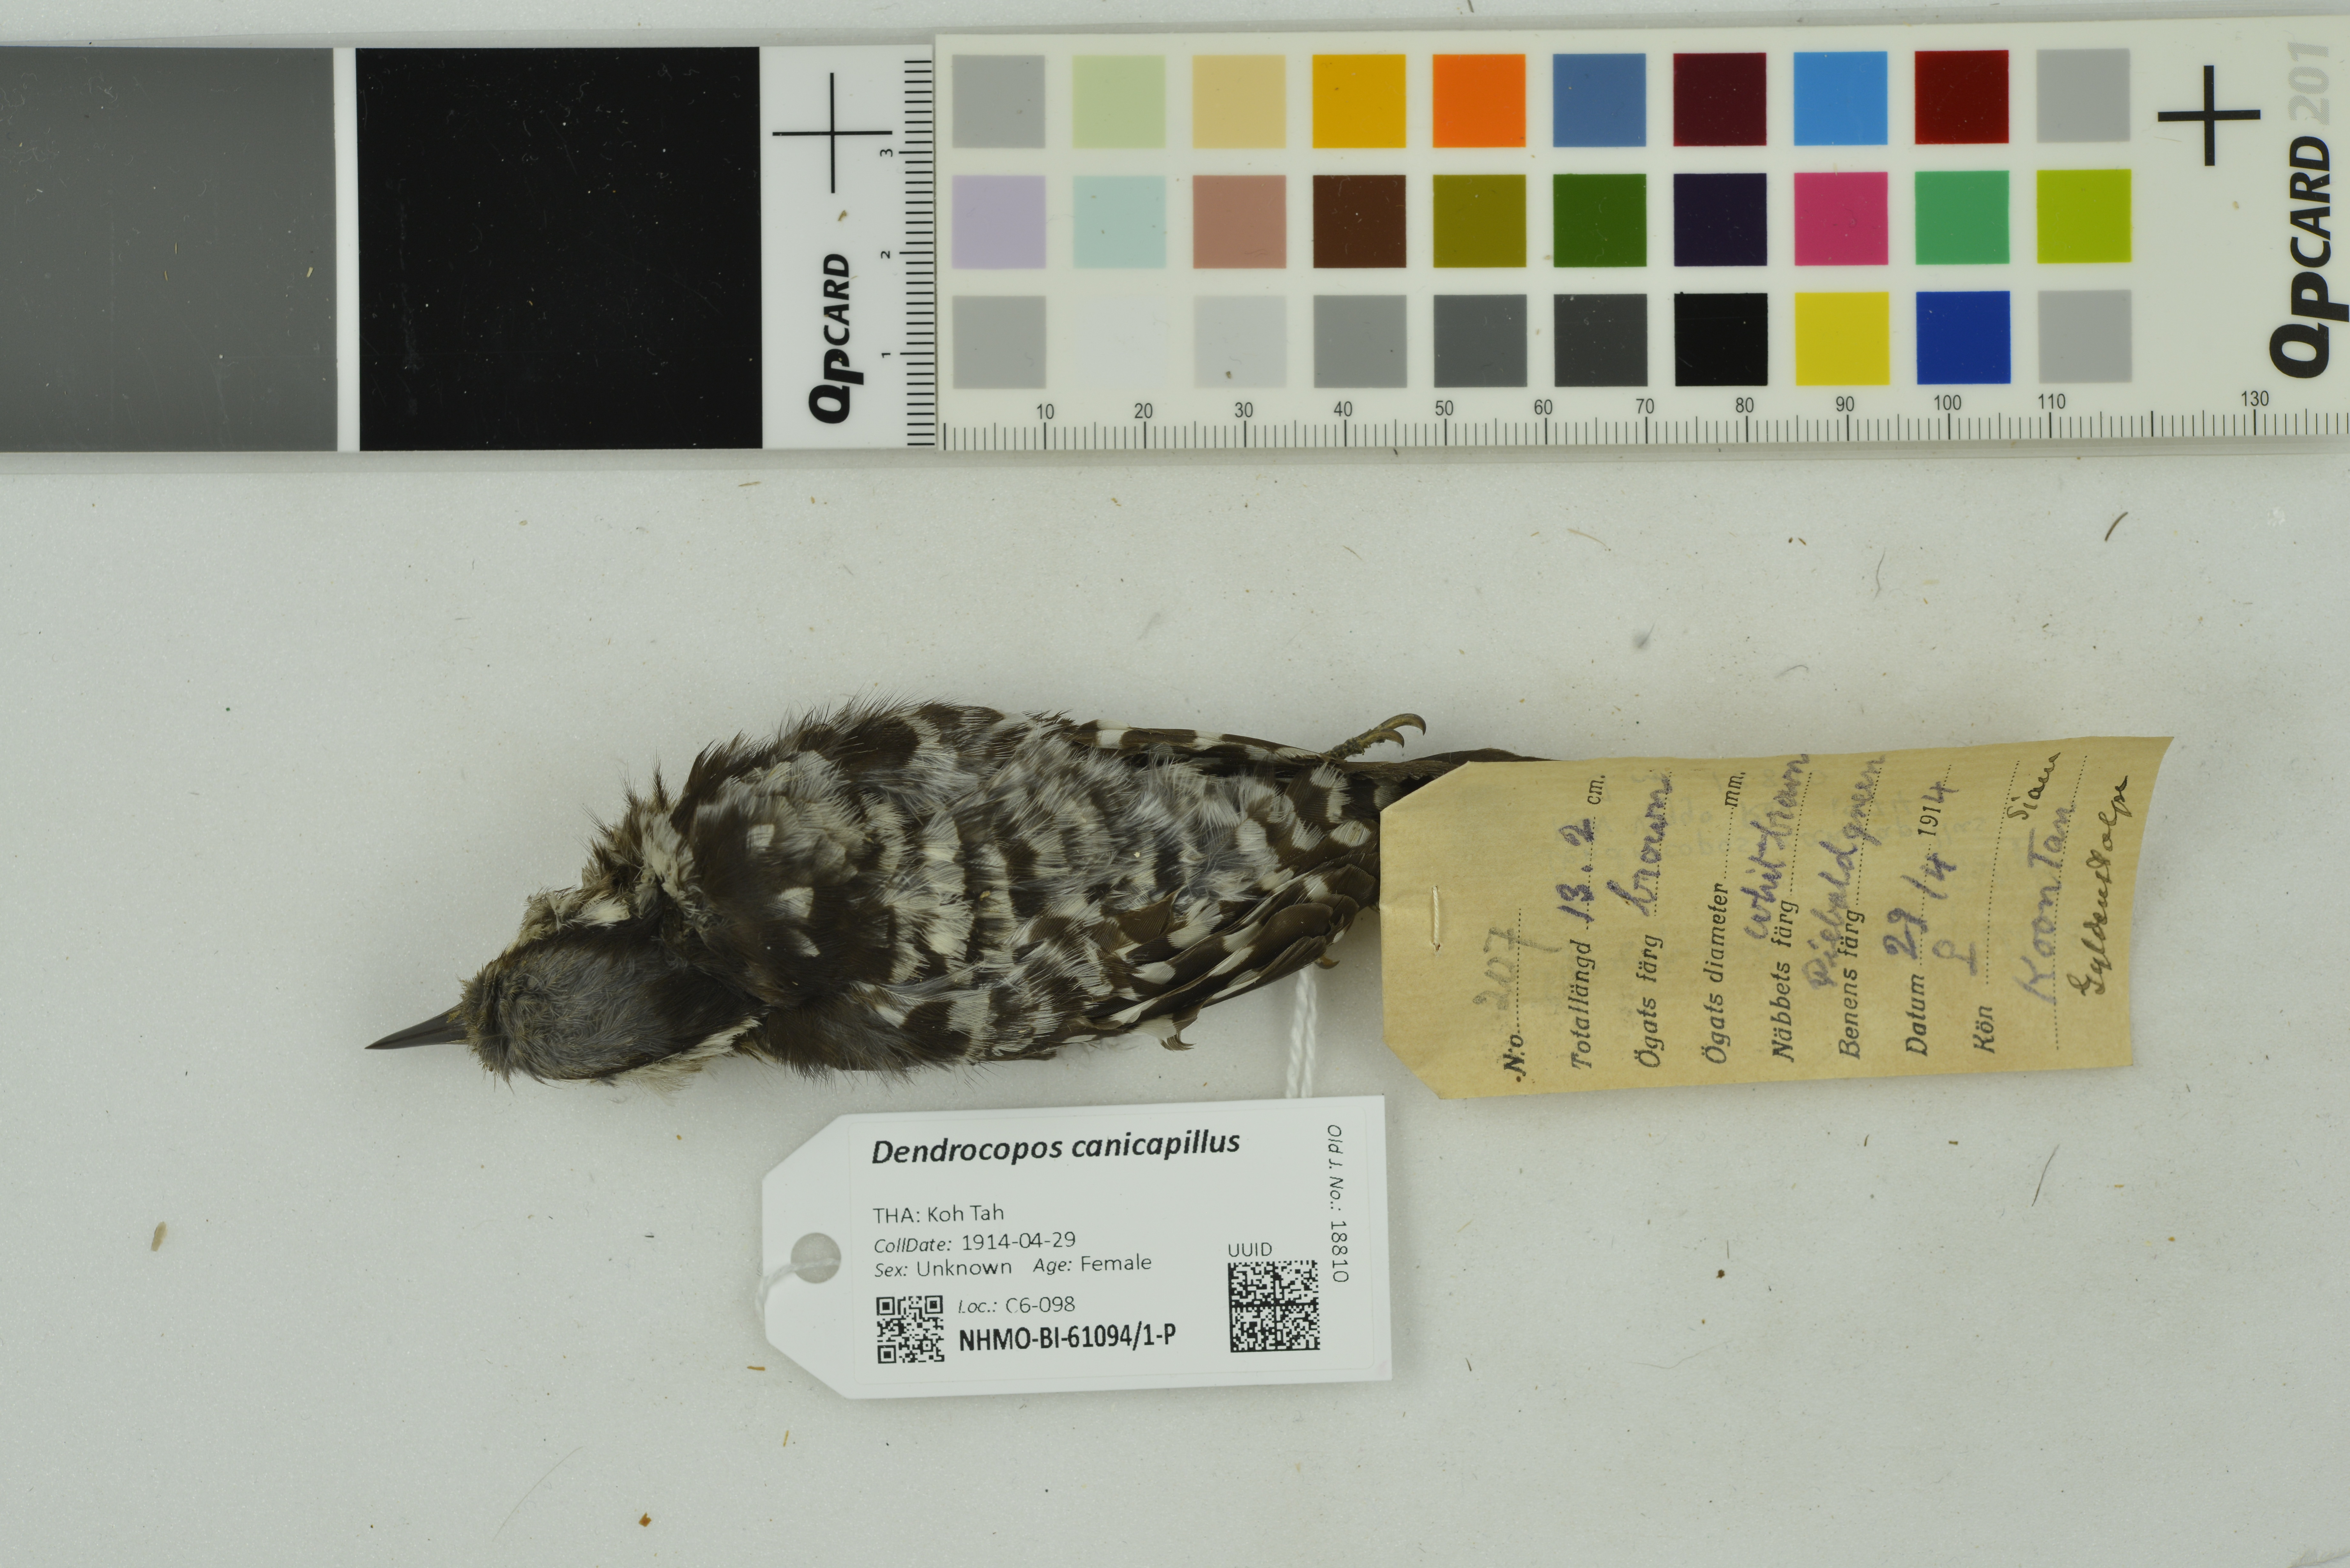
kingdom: Animalia
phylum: Chordata
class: Aves
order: Piciformes
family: Picidae
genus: Yungipicus
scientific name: Yungipicus canicapillus
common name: Grey-capped pygmy woodpecker
